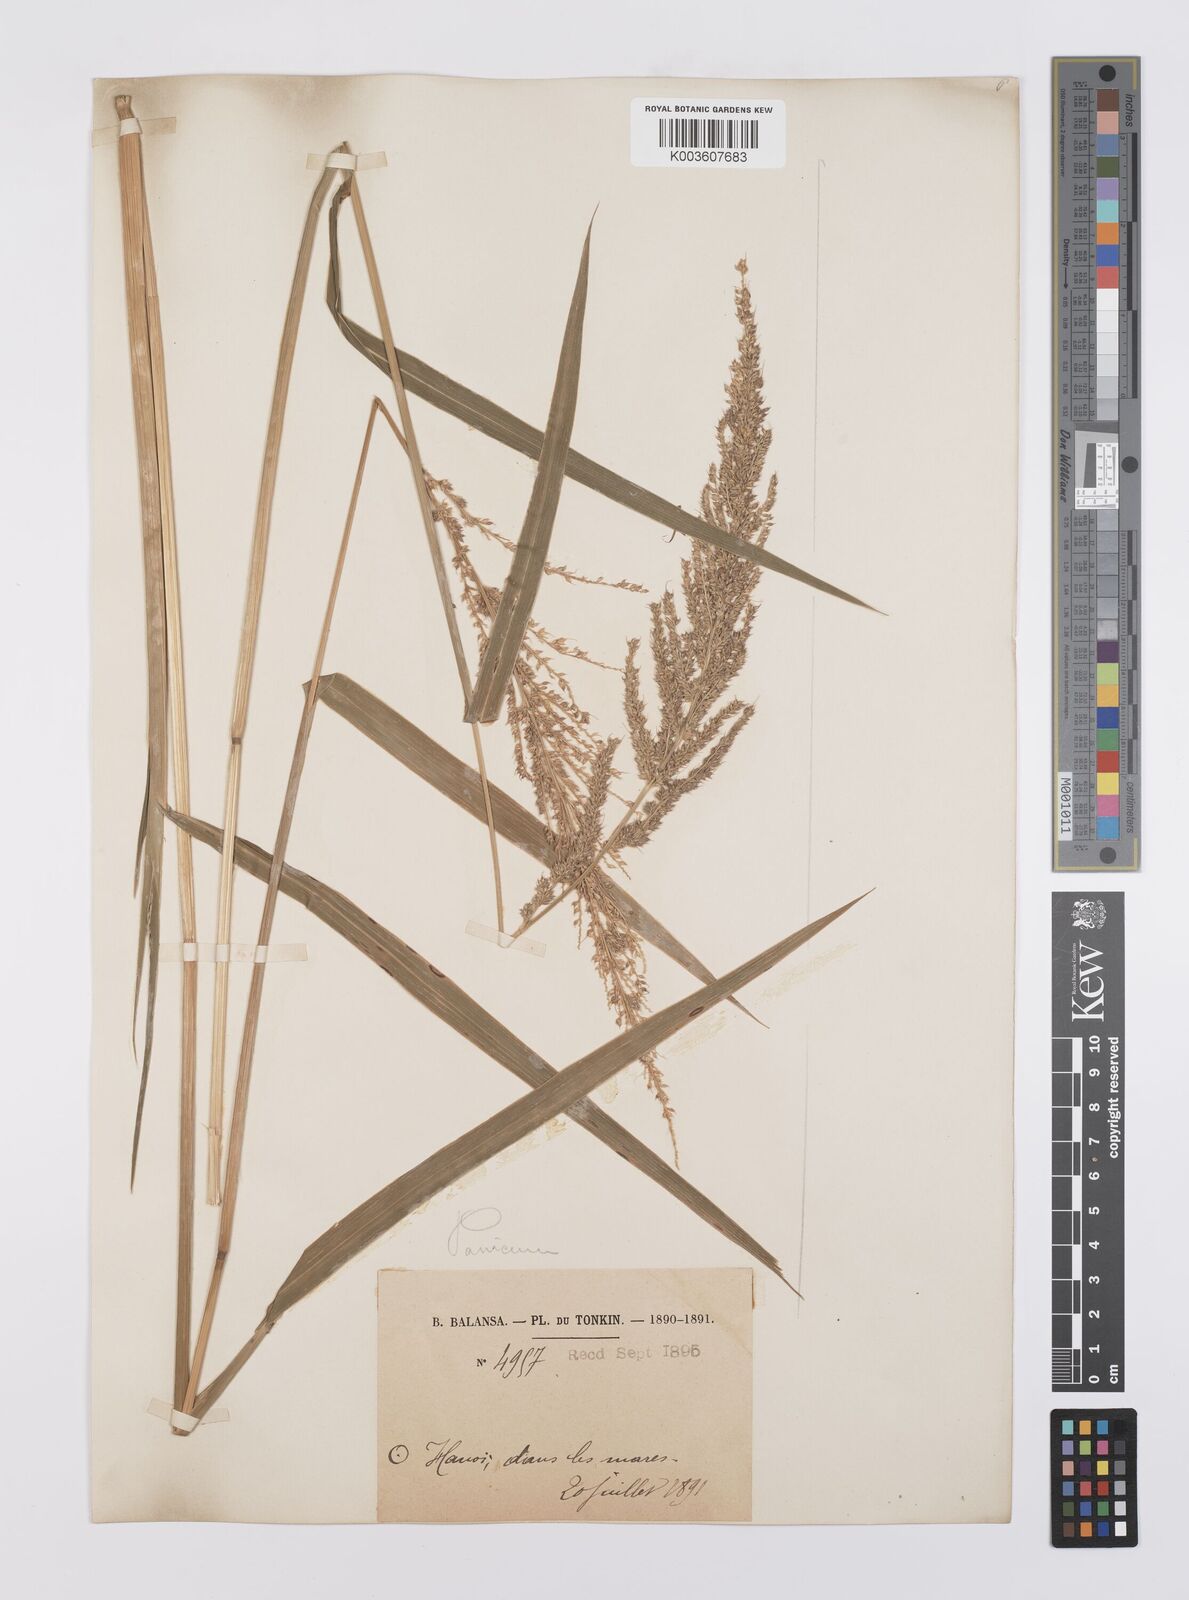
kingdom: Plantae
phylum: Tracheophyta
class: Liliopsida
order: Poales
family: Poaceae
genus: Echinochloa
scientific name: Echinochloa crus-galli
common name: Cockspur
